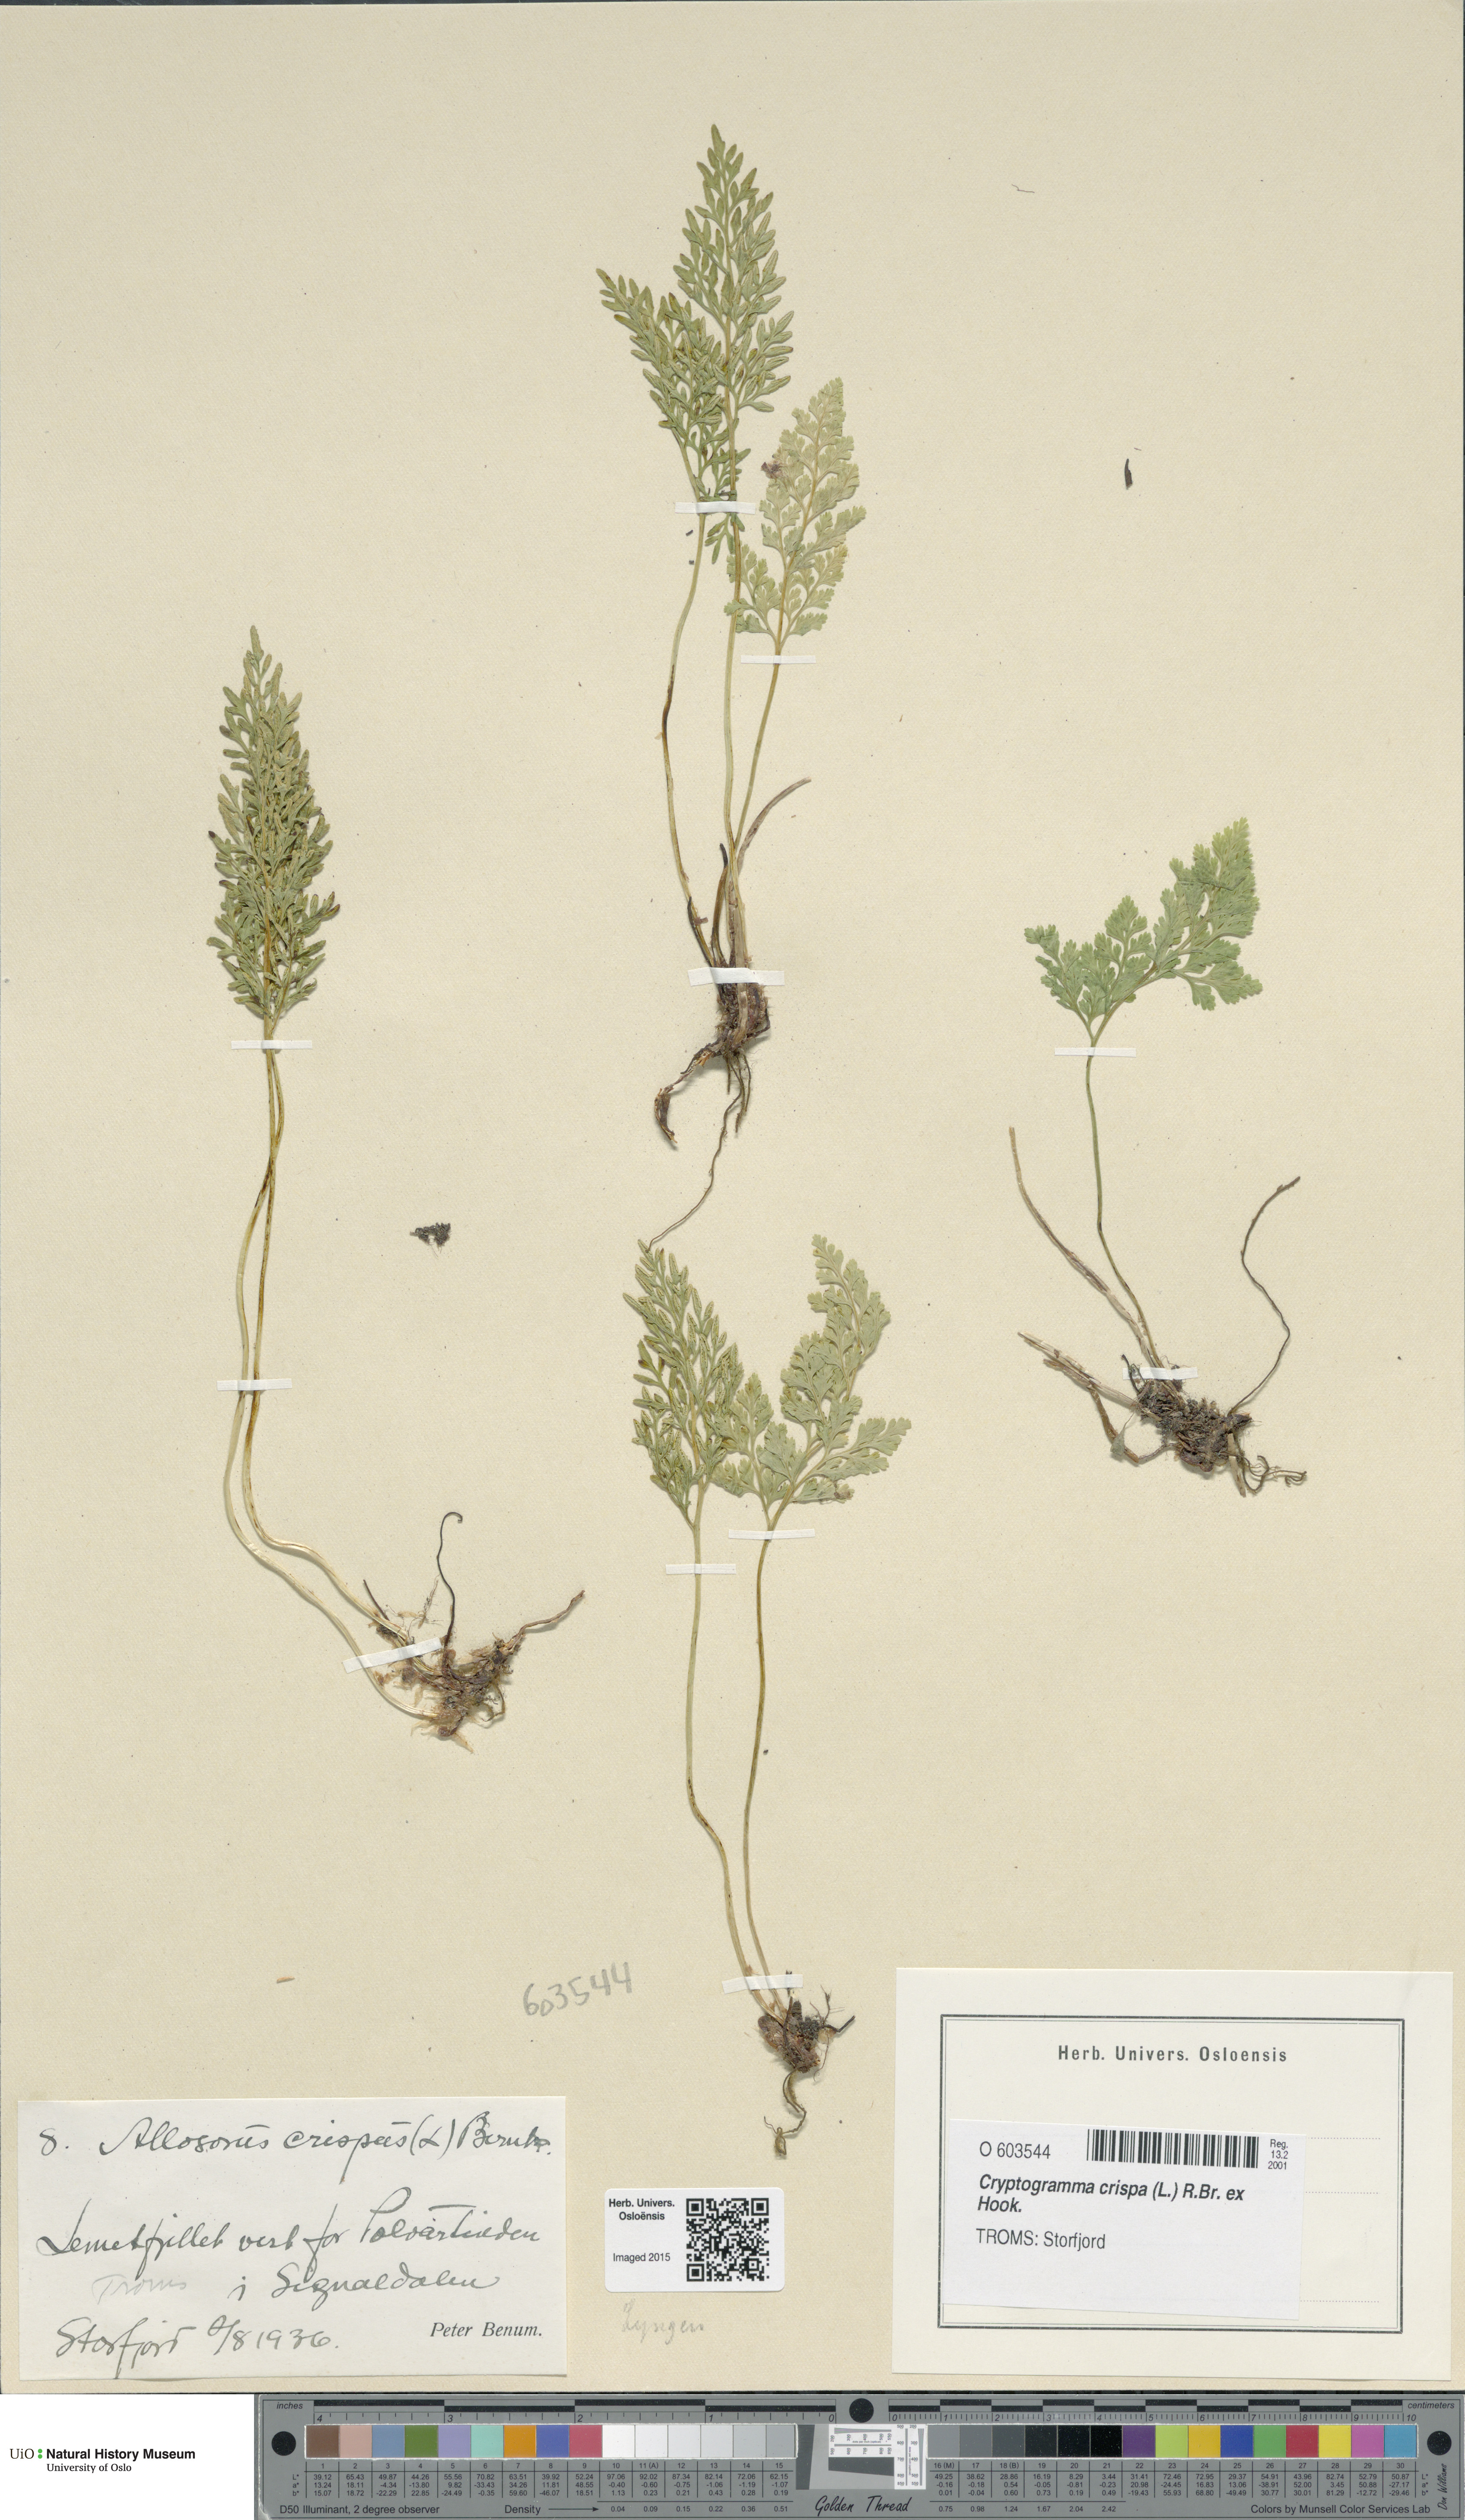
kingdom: Plantae
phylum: Tracheophyta
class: Polypodiopsida
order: Polypodiales
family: Pteridaceae
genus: Cryptogramma
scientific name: Cryptogramma crispa
